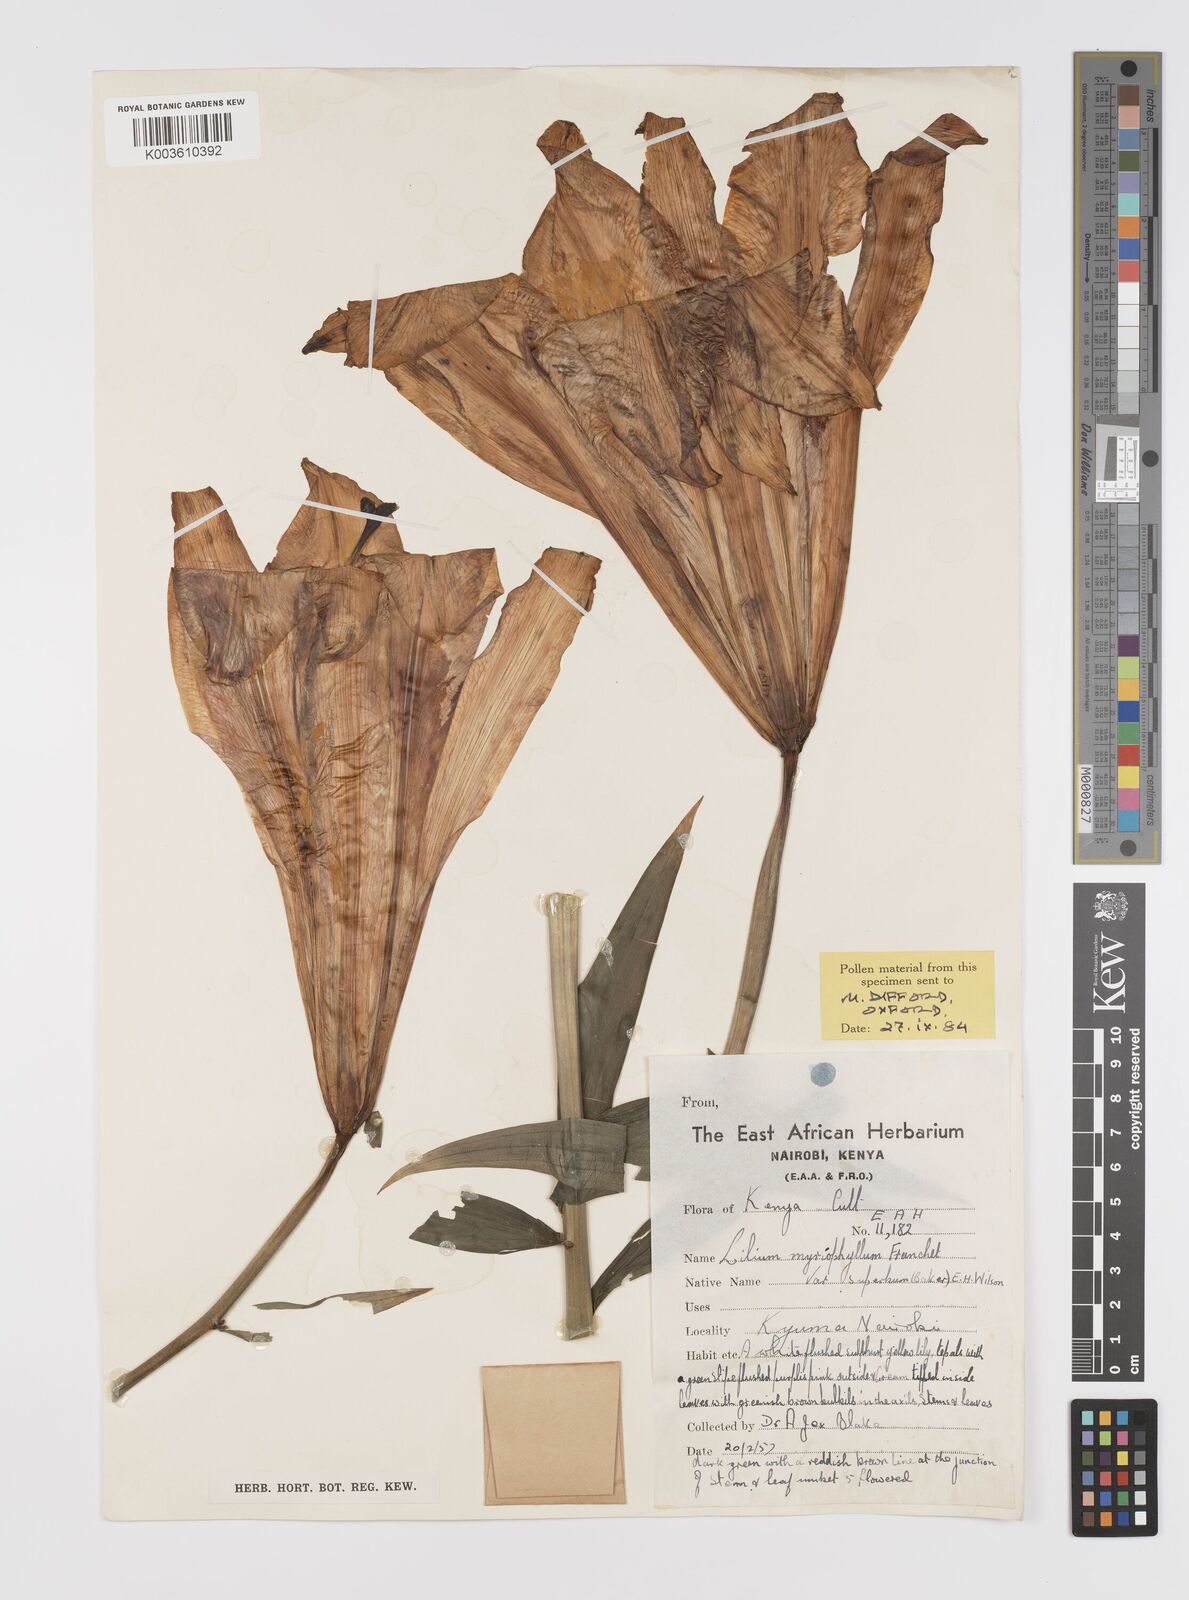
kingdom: Plantae
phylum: Tracheophyta
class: Liliopsida
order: Liliales
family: Liliaceae
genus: Lilium
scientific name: Lilium sulphureum
